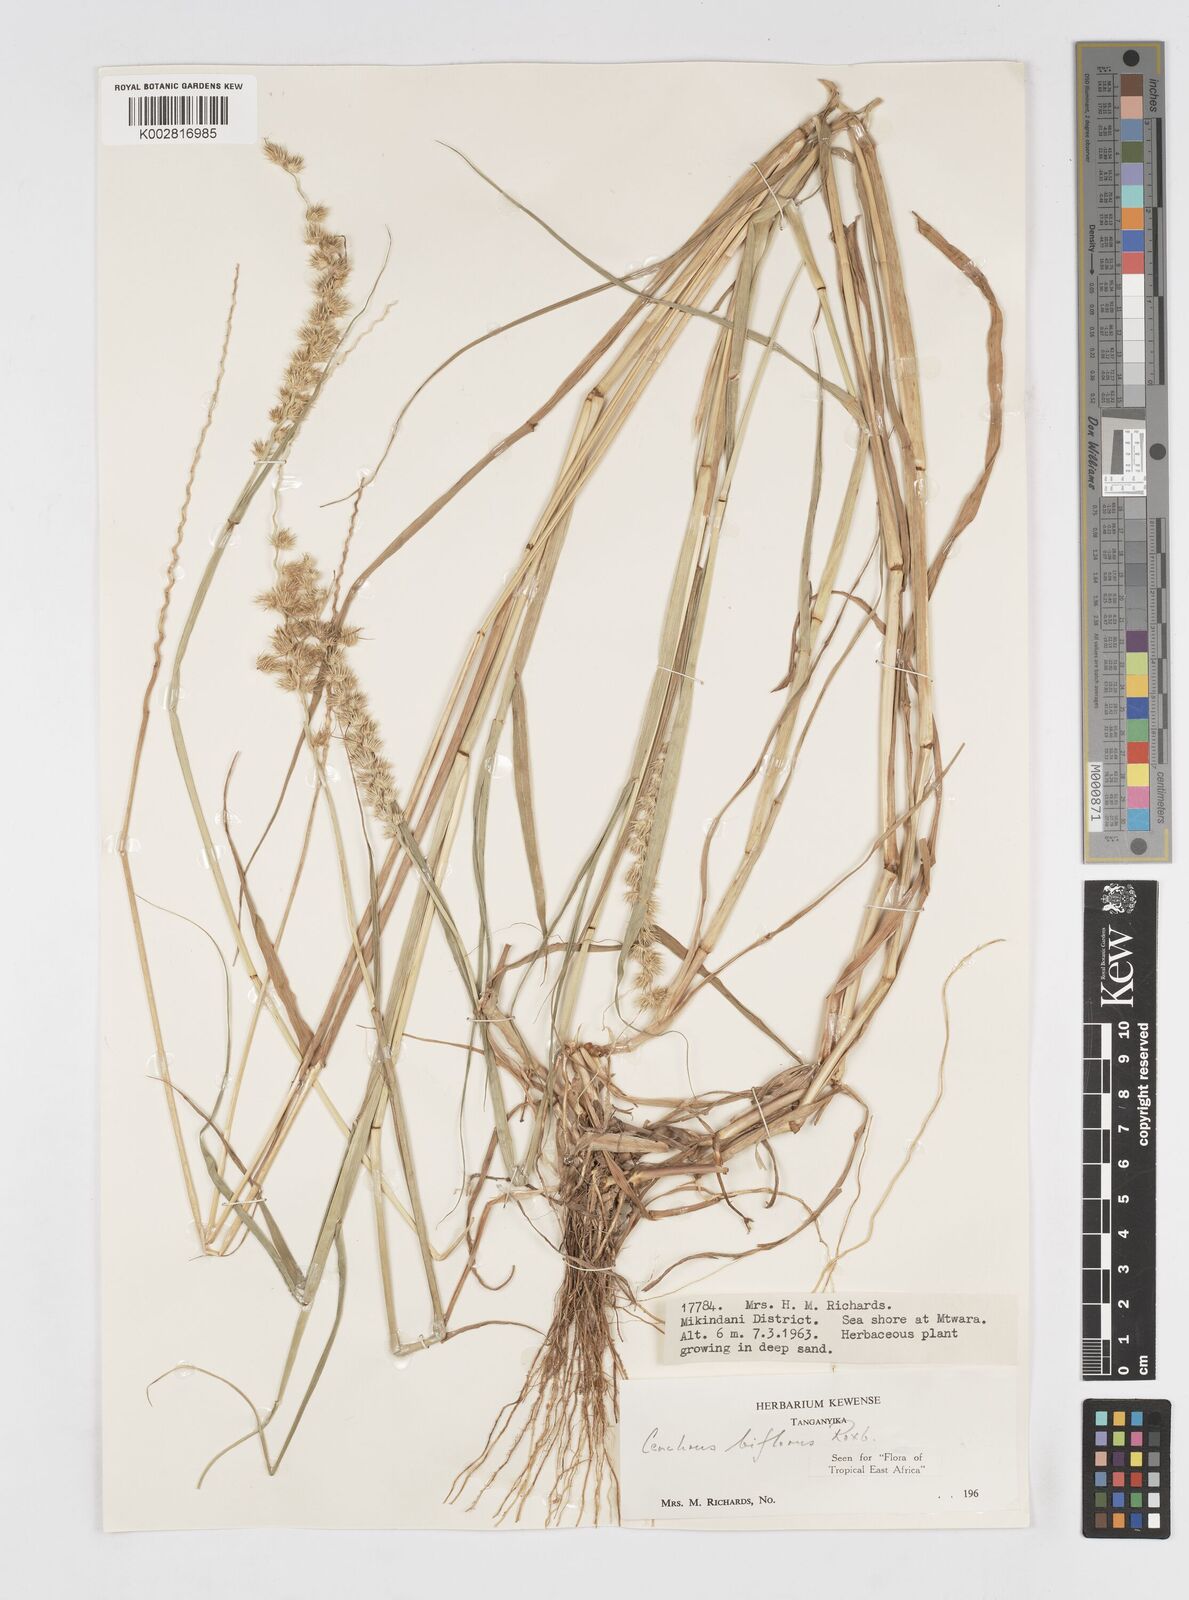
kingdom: Plantae
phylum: Tracheophyta
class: Liliopsida
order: Poales
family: Poaceae
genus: Cenchrus
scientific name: Cenchrus biflorus
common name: Indian sandbur
